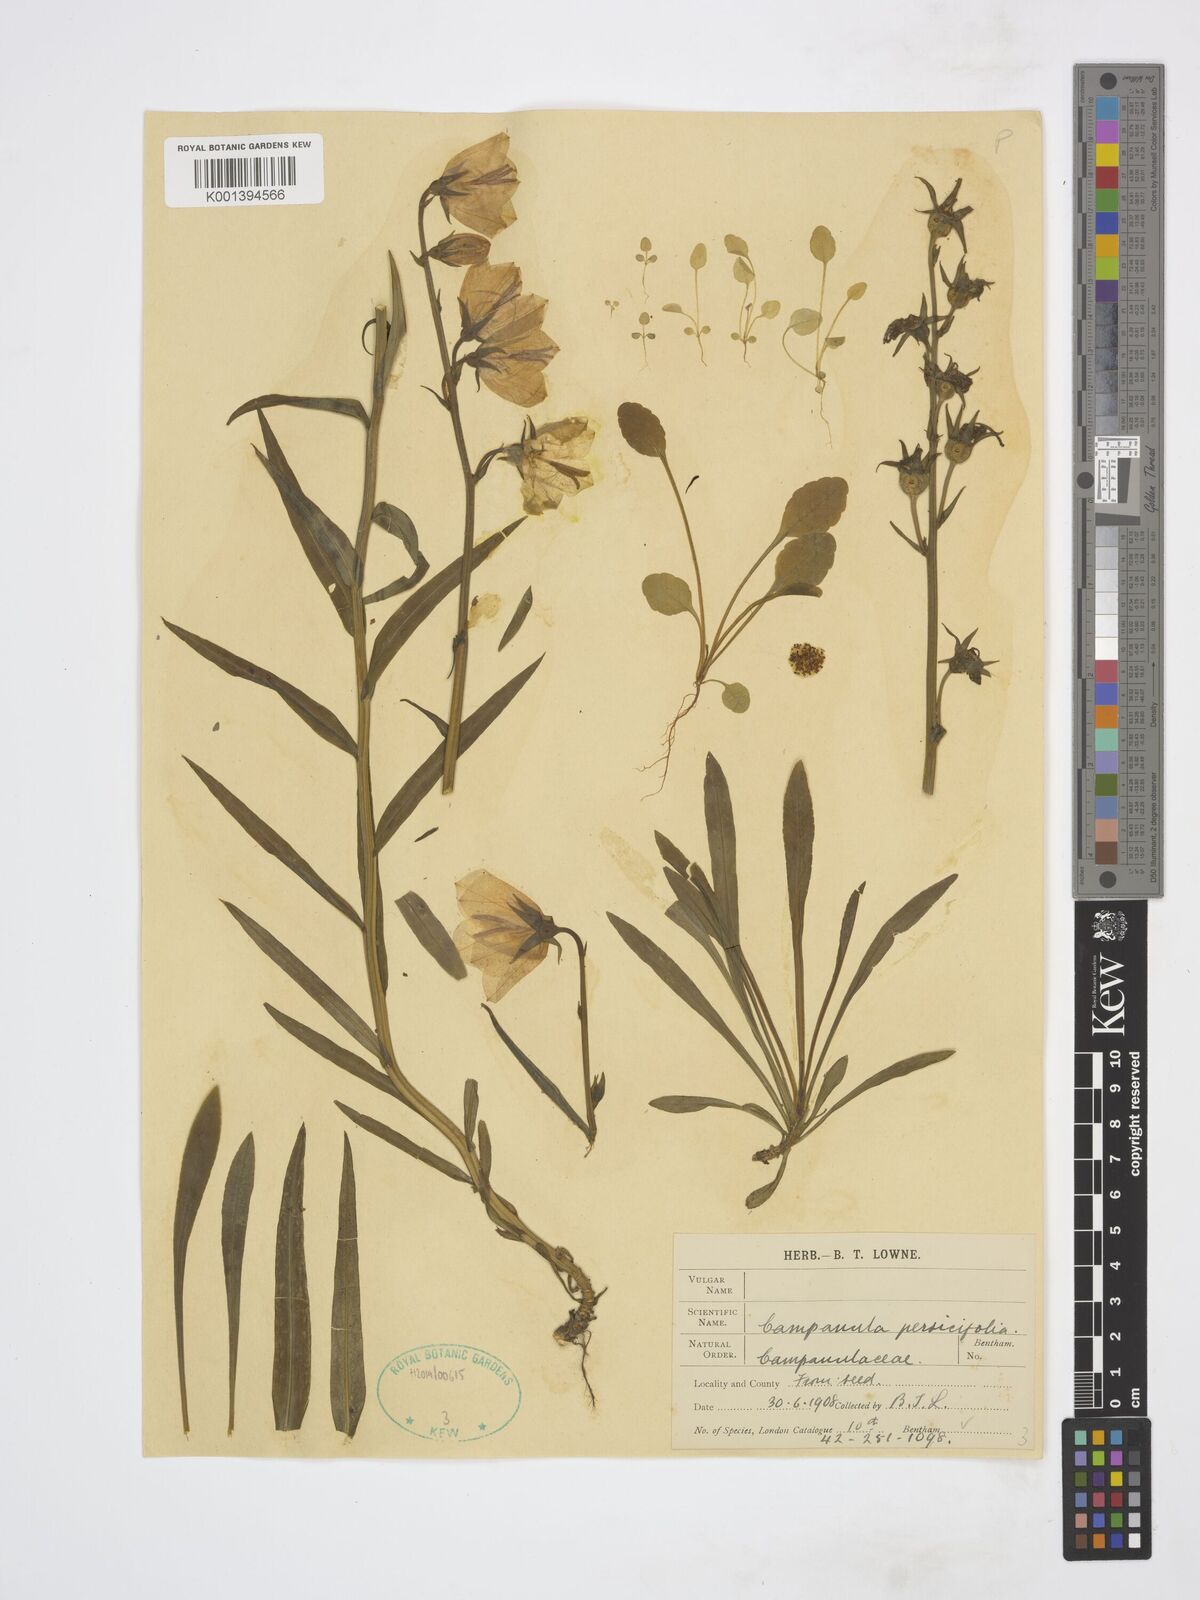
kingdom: Plantae
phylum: Tracheophyta
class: Magnoliopsida
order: Asterales
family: Campanulaceae
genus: Campanula
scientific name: Campanula persicifolia
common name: Peach-leaved bellflower
